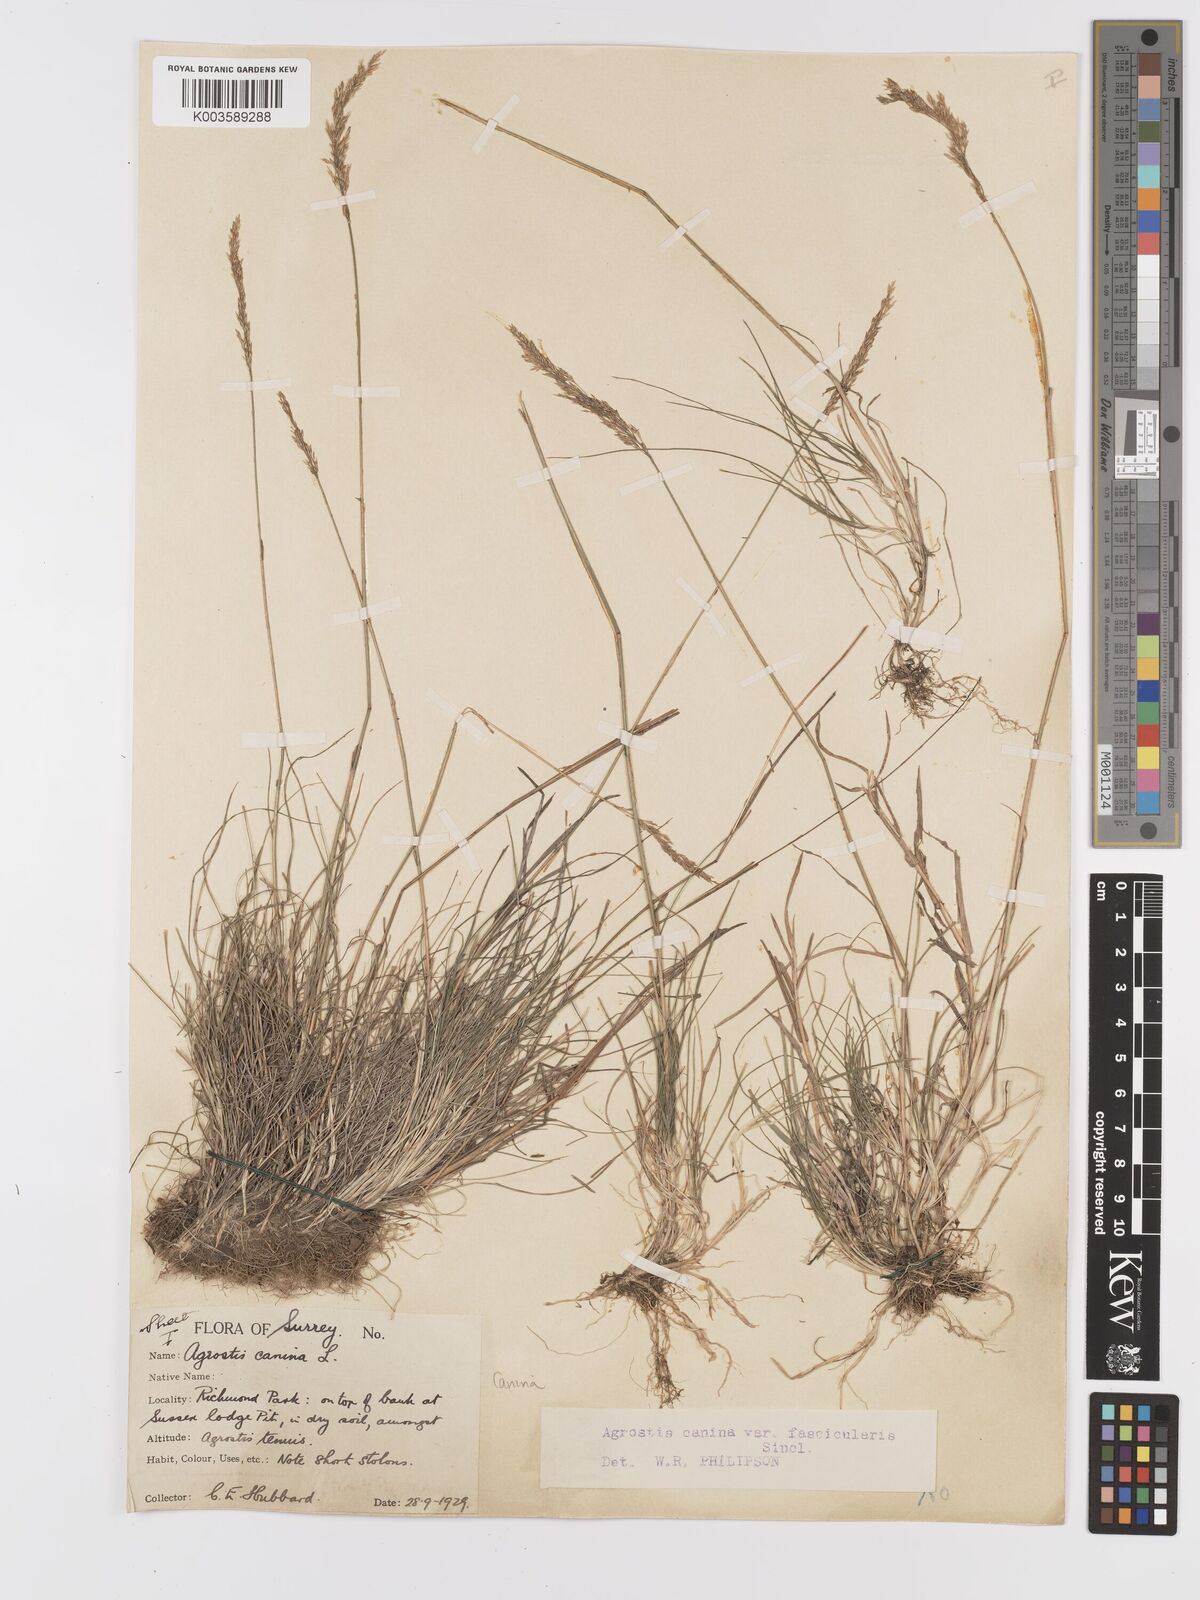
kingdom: Plantae
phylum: Tracheophyta
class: Liliopsida
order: Poales
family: Poaceae
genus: Agrostis
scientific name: Agrostis canina
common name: Velvet bent
